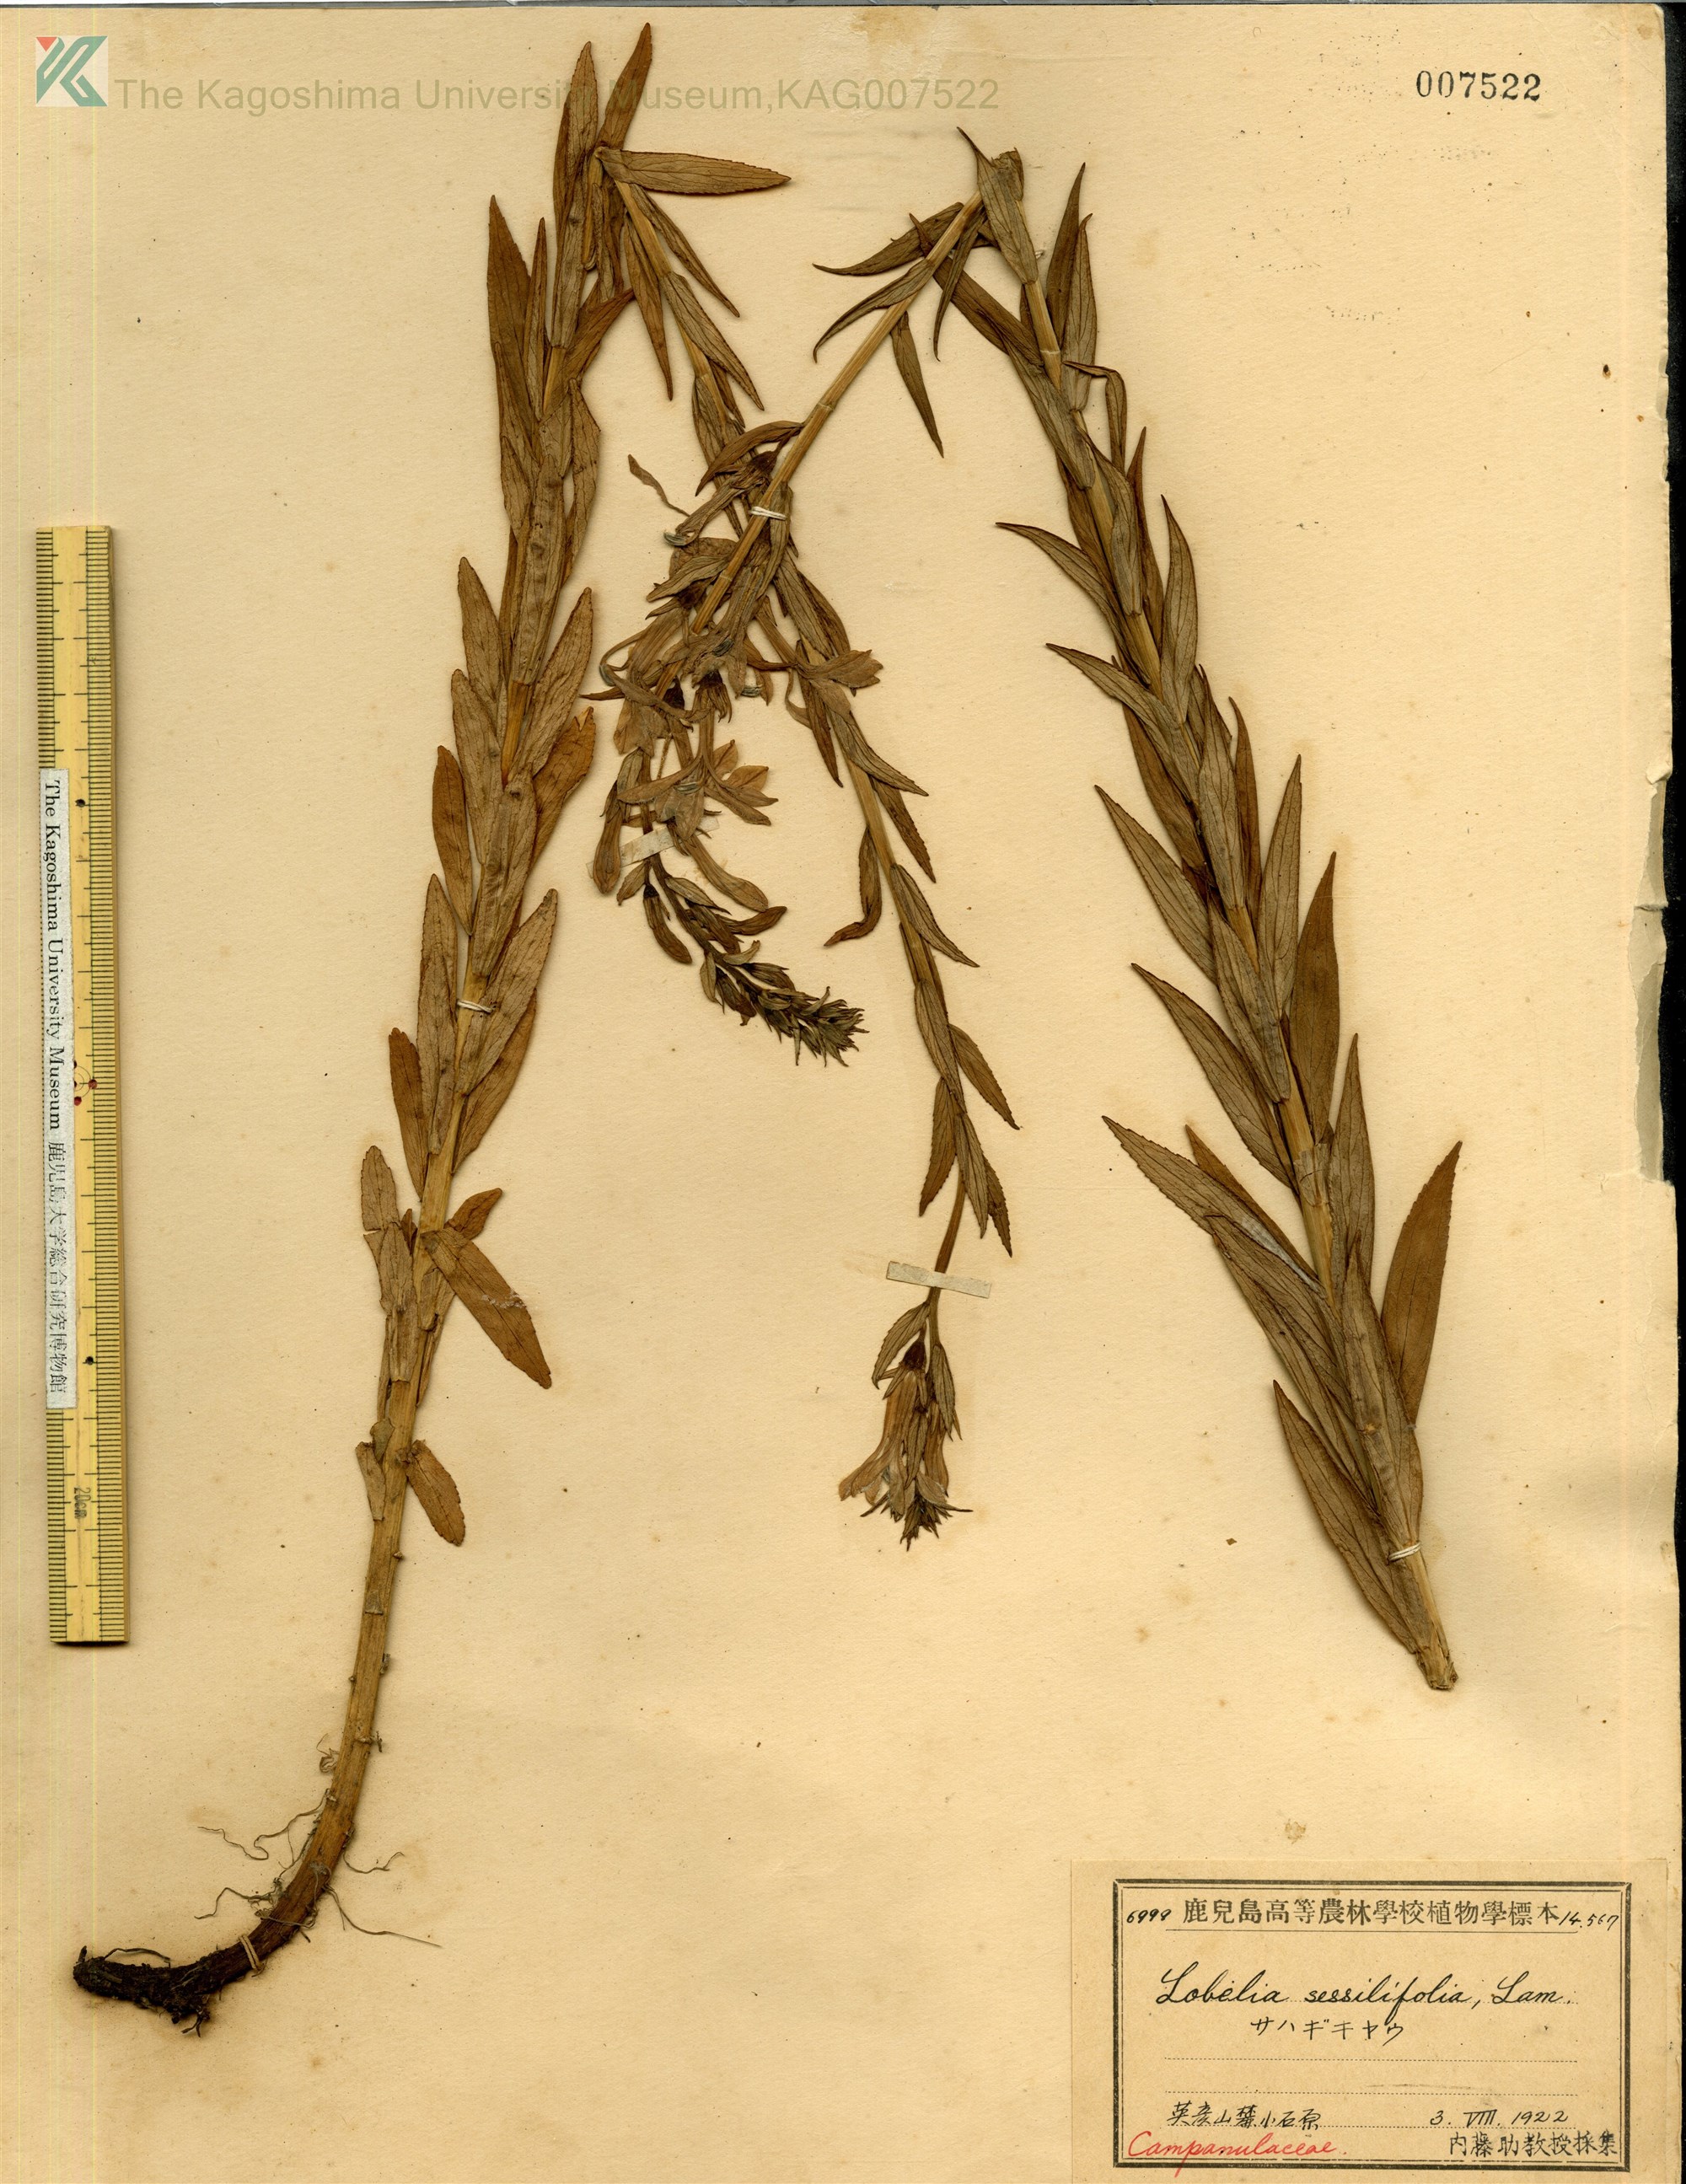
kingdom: Plantae
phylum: Tracheophyta
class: Magnoliopsida
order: Asterales
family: Campanulaceae
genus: Lobelia
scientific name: Lobelia sessilifolia
